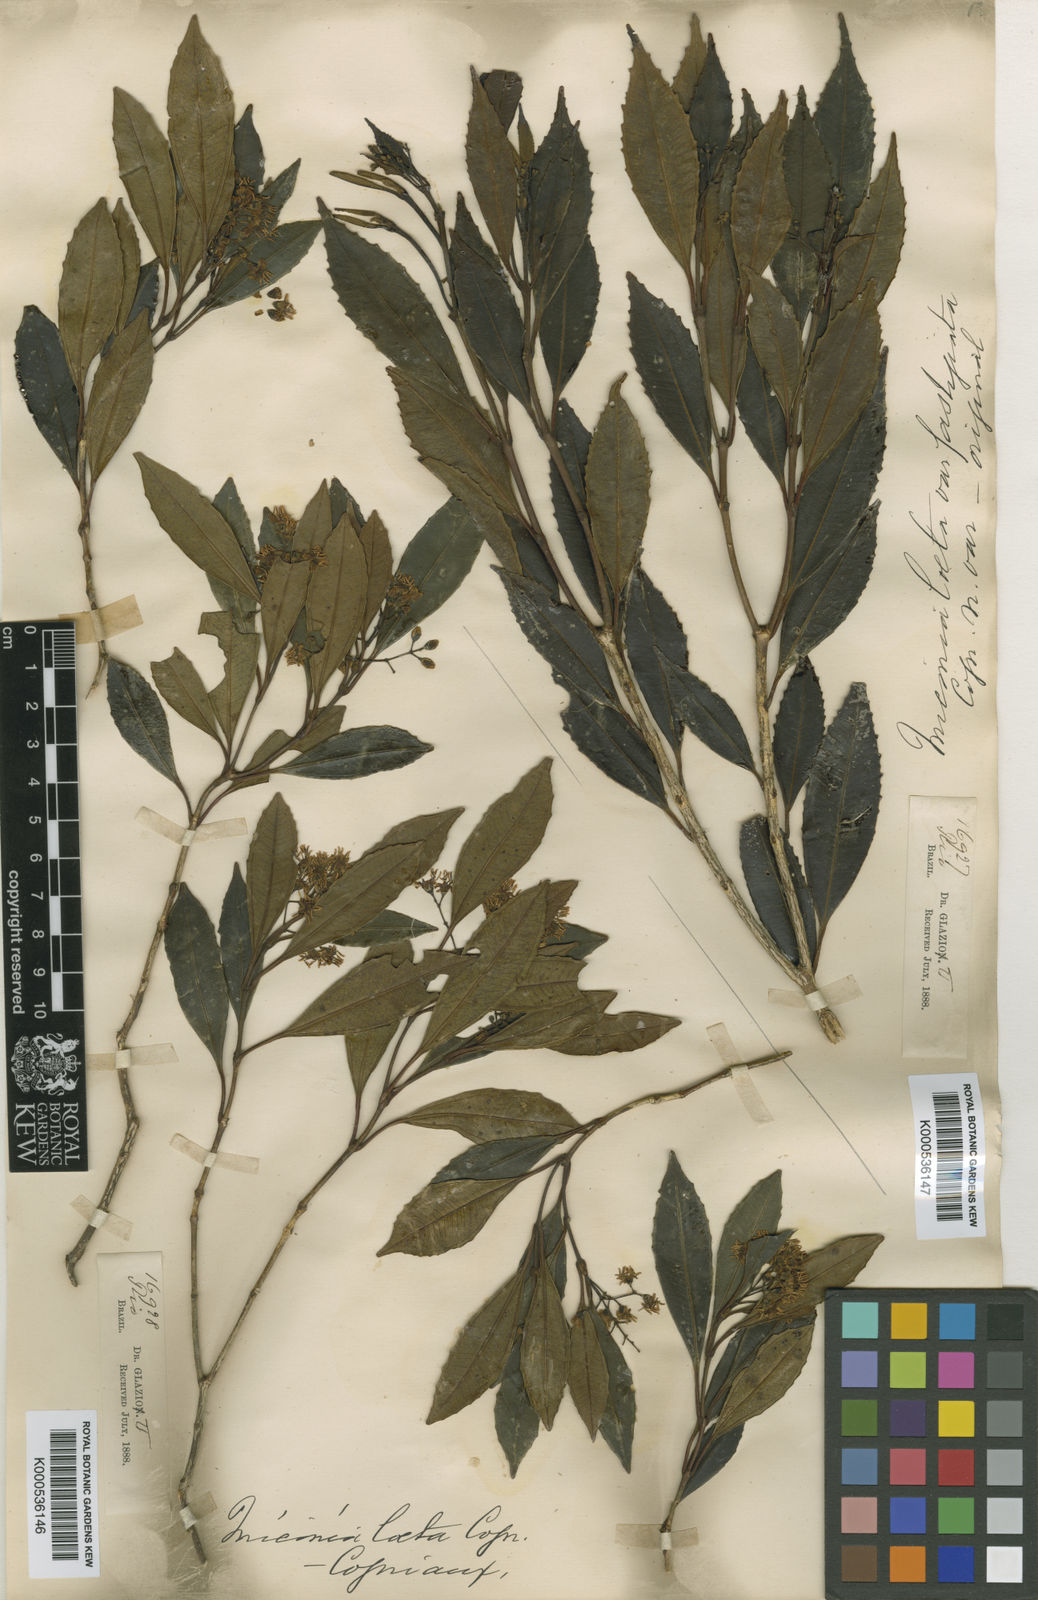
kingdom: Plantae
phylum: Tracheophyta
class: Magnoliopsida
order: Myrtales
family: Melastomataceae
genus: Miconia
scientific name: Miconia laeta
